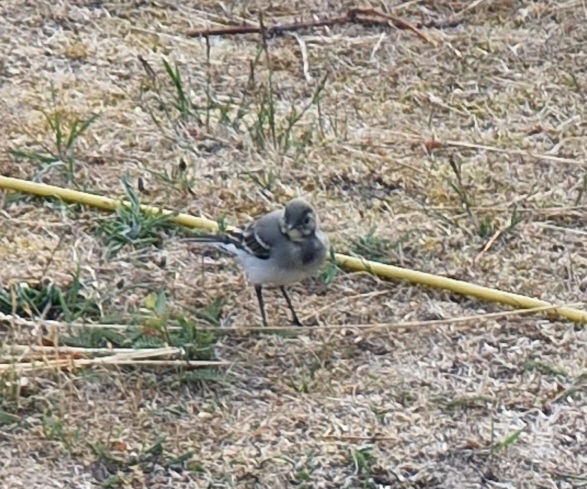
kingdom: Animalia
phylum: Chordata
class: Aves
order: Passeriformes
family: Motacillidae
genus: Motacilla
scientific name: Motacilla alba
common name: Hvid vipstjert
